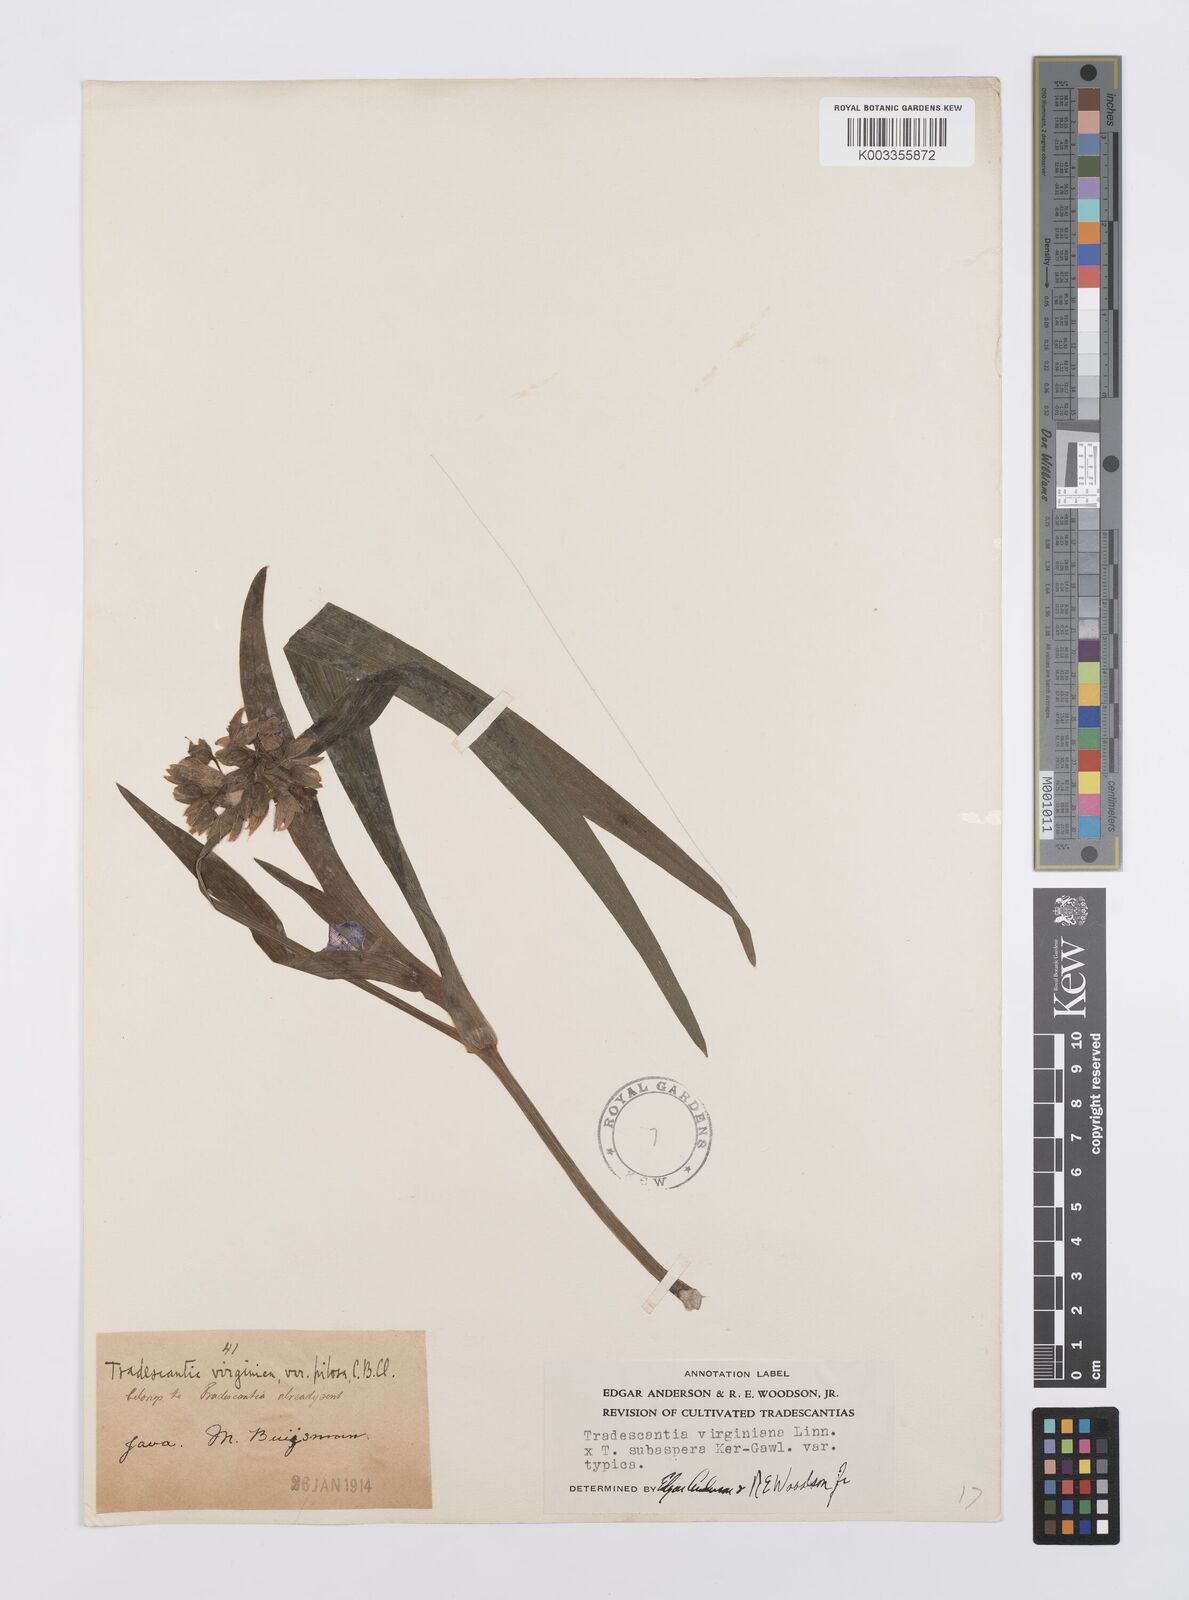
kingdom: Plantae
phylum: Tracheophyta
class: Liliopsida
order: Commelinales
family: Commelinaceae
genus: Tradescantia
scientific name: Tradescantia virginiana
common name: Spiderwort
